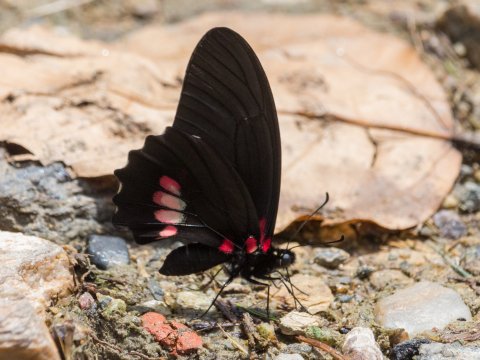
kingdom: Animalia
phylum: Arthropoda
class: Insecta
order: Lepidoptera
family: Papilionidae
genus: Mimoides
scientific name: Mimoides ariarathes
